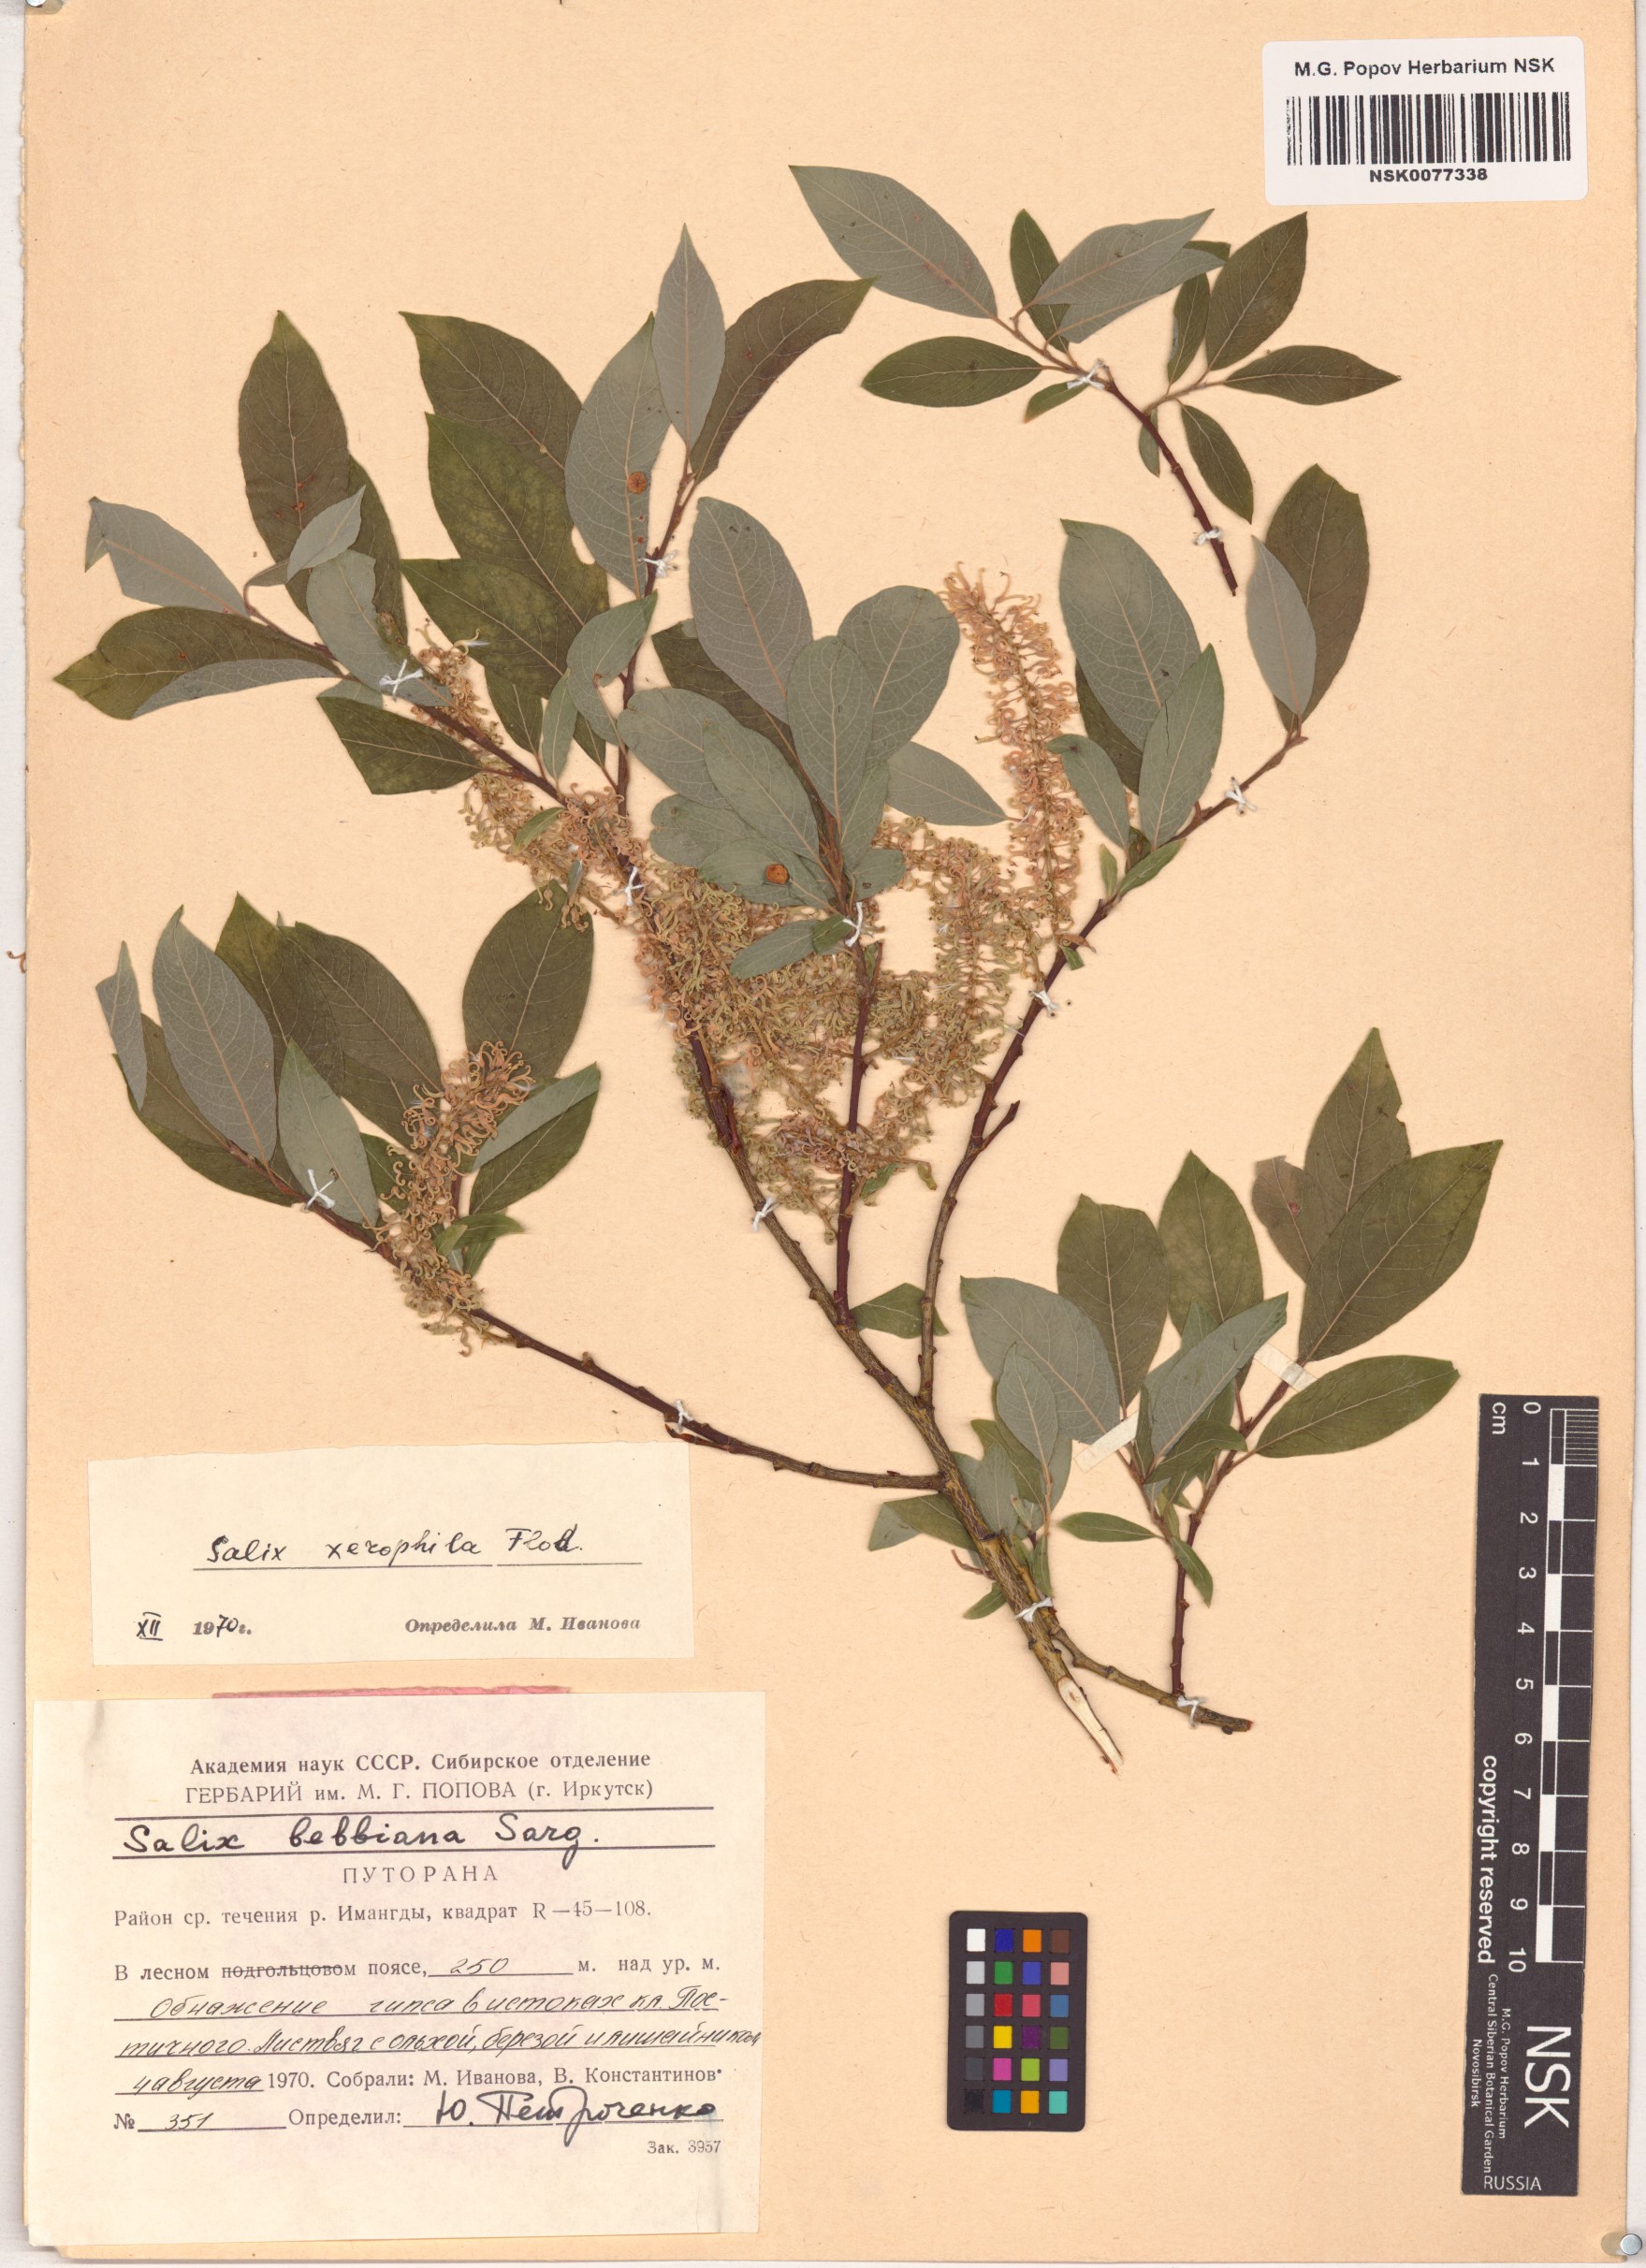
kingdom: Plantae
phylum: Tracheophyta
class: Magnoliopsida
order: Malpighiales
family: Salicaceae
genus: Salix
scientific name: Salix bebbiana
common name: Bebb's willow
